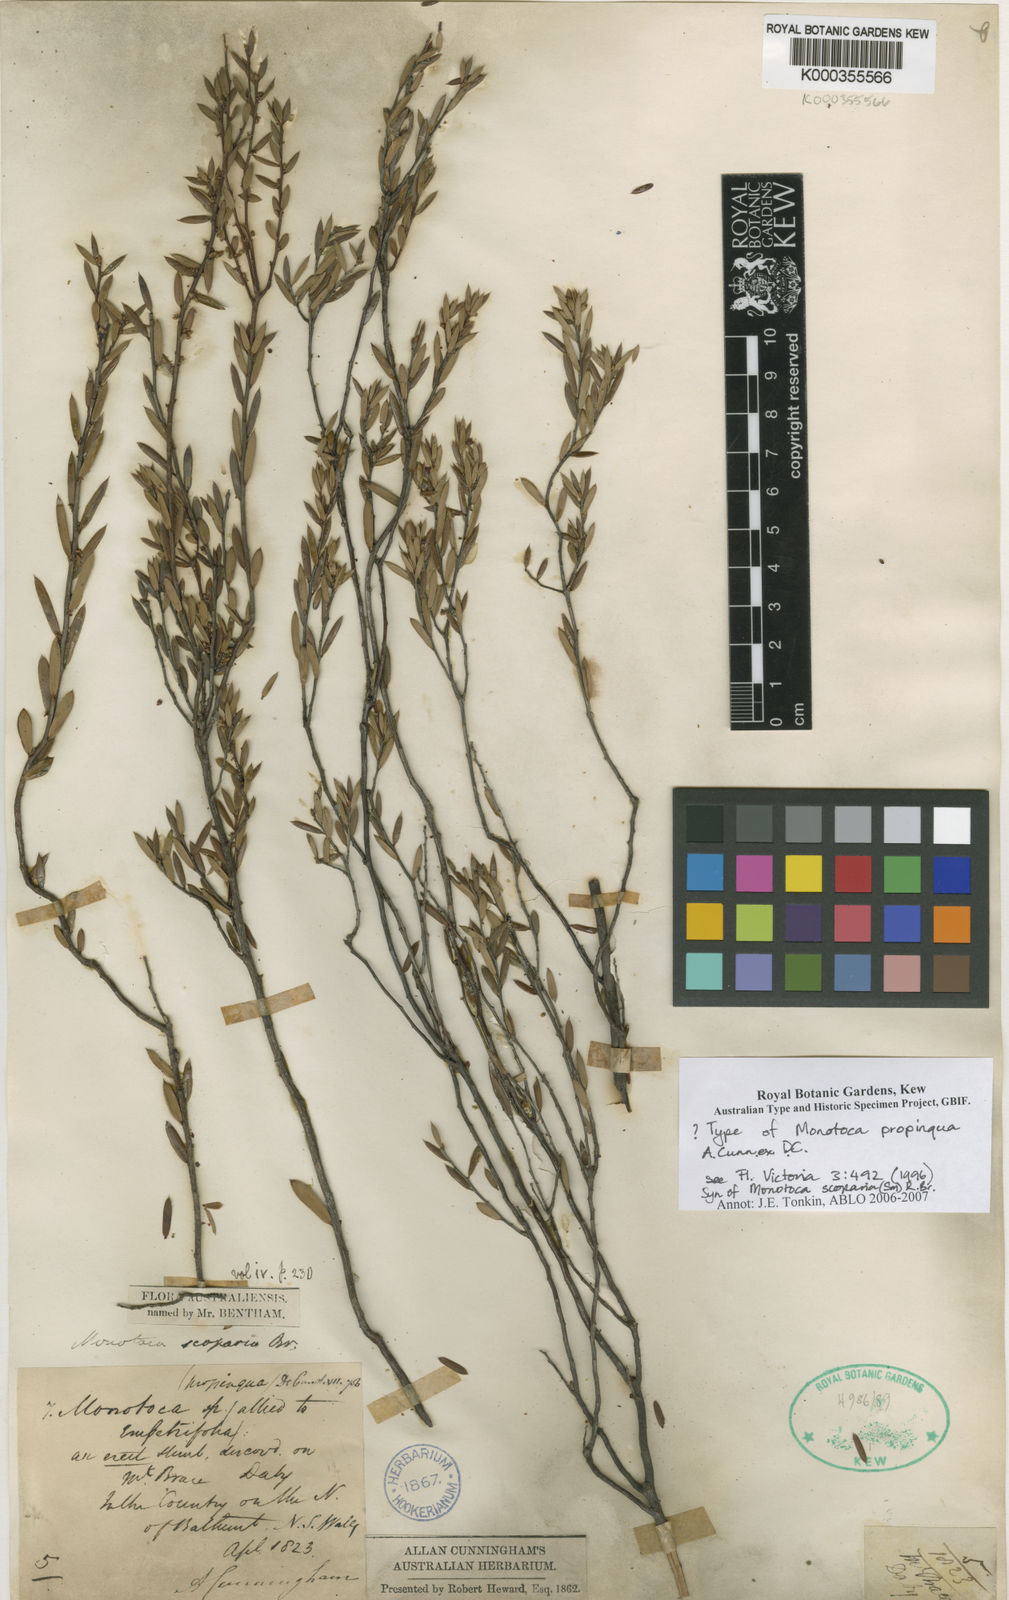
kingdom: Plantae
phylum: Tracheophyta
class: Magnoliopsida
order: Ericales
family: Ericaceae
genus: Monotoca
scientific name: Monotoca scoparia
